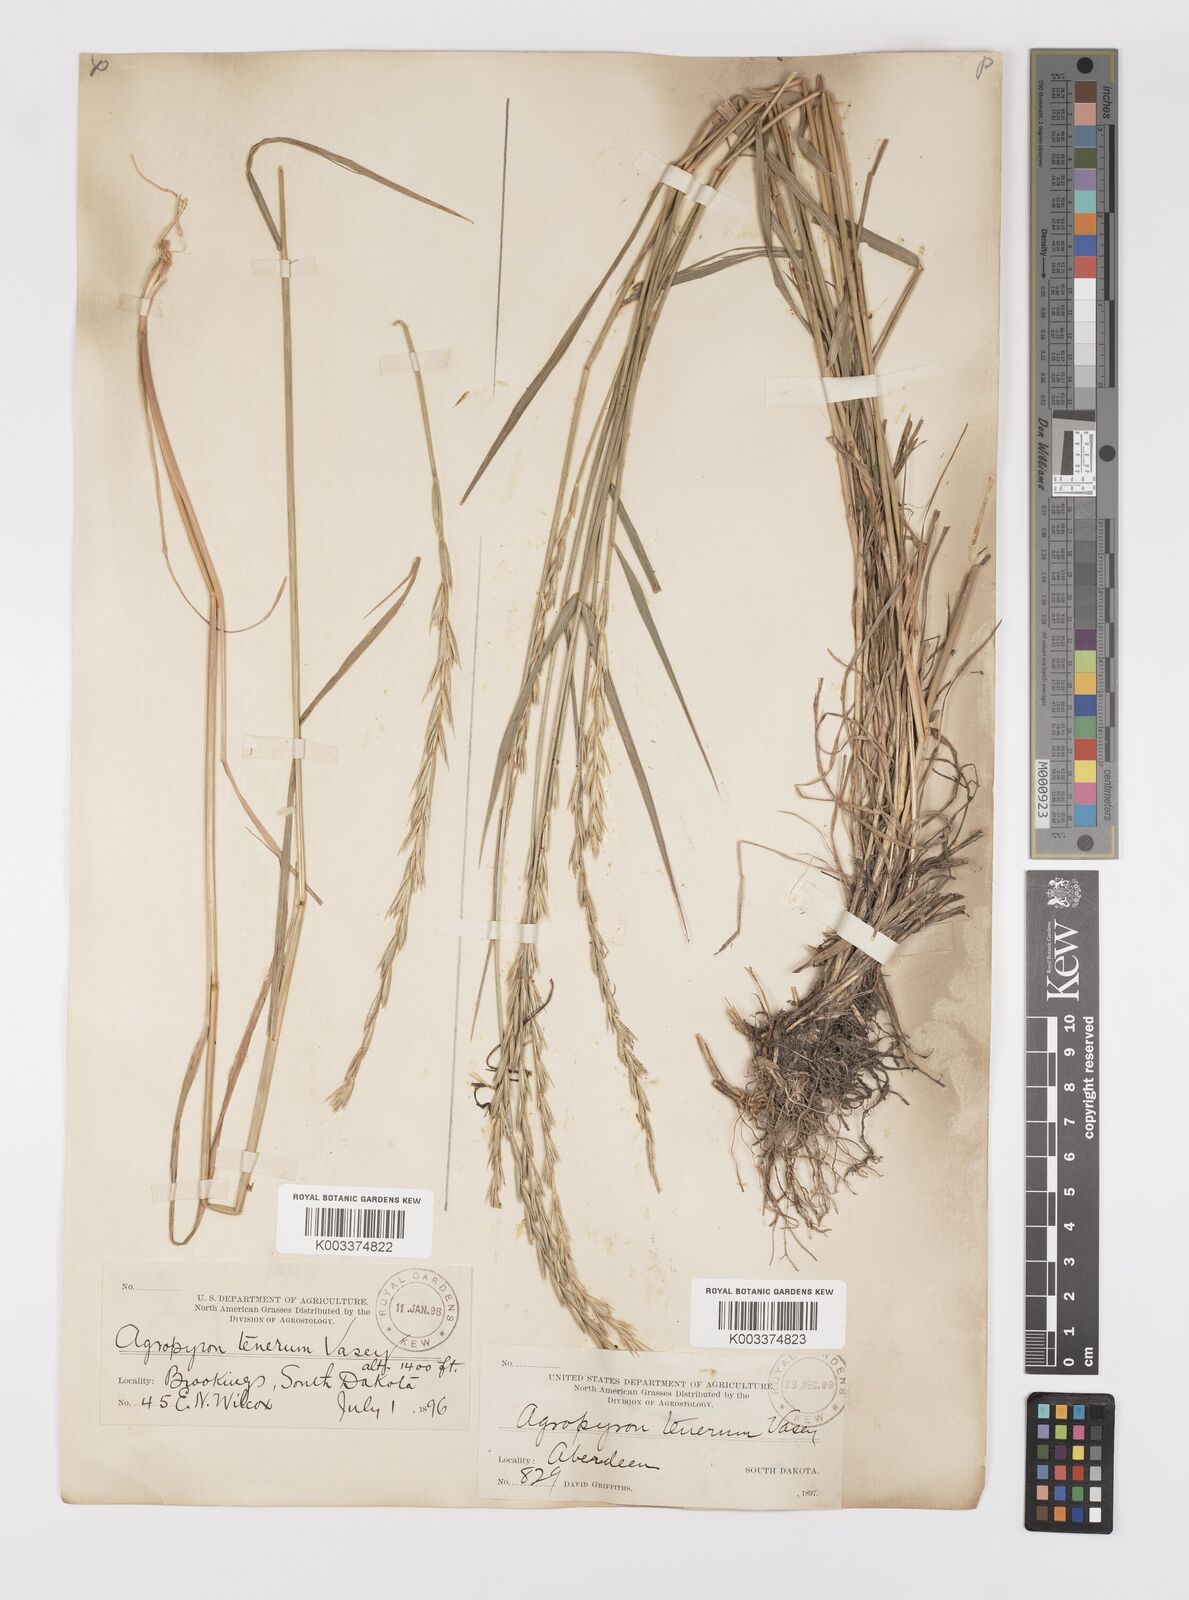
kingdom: Plantae
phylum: Tracheophyta
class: Liliopsida
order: Poales
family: Poaceae
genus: Elymus
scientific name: Elymus violaceus
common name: Arctic wheatgrass
